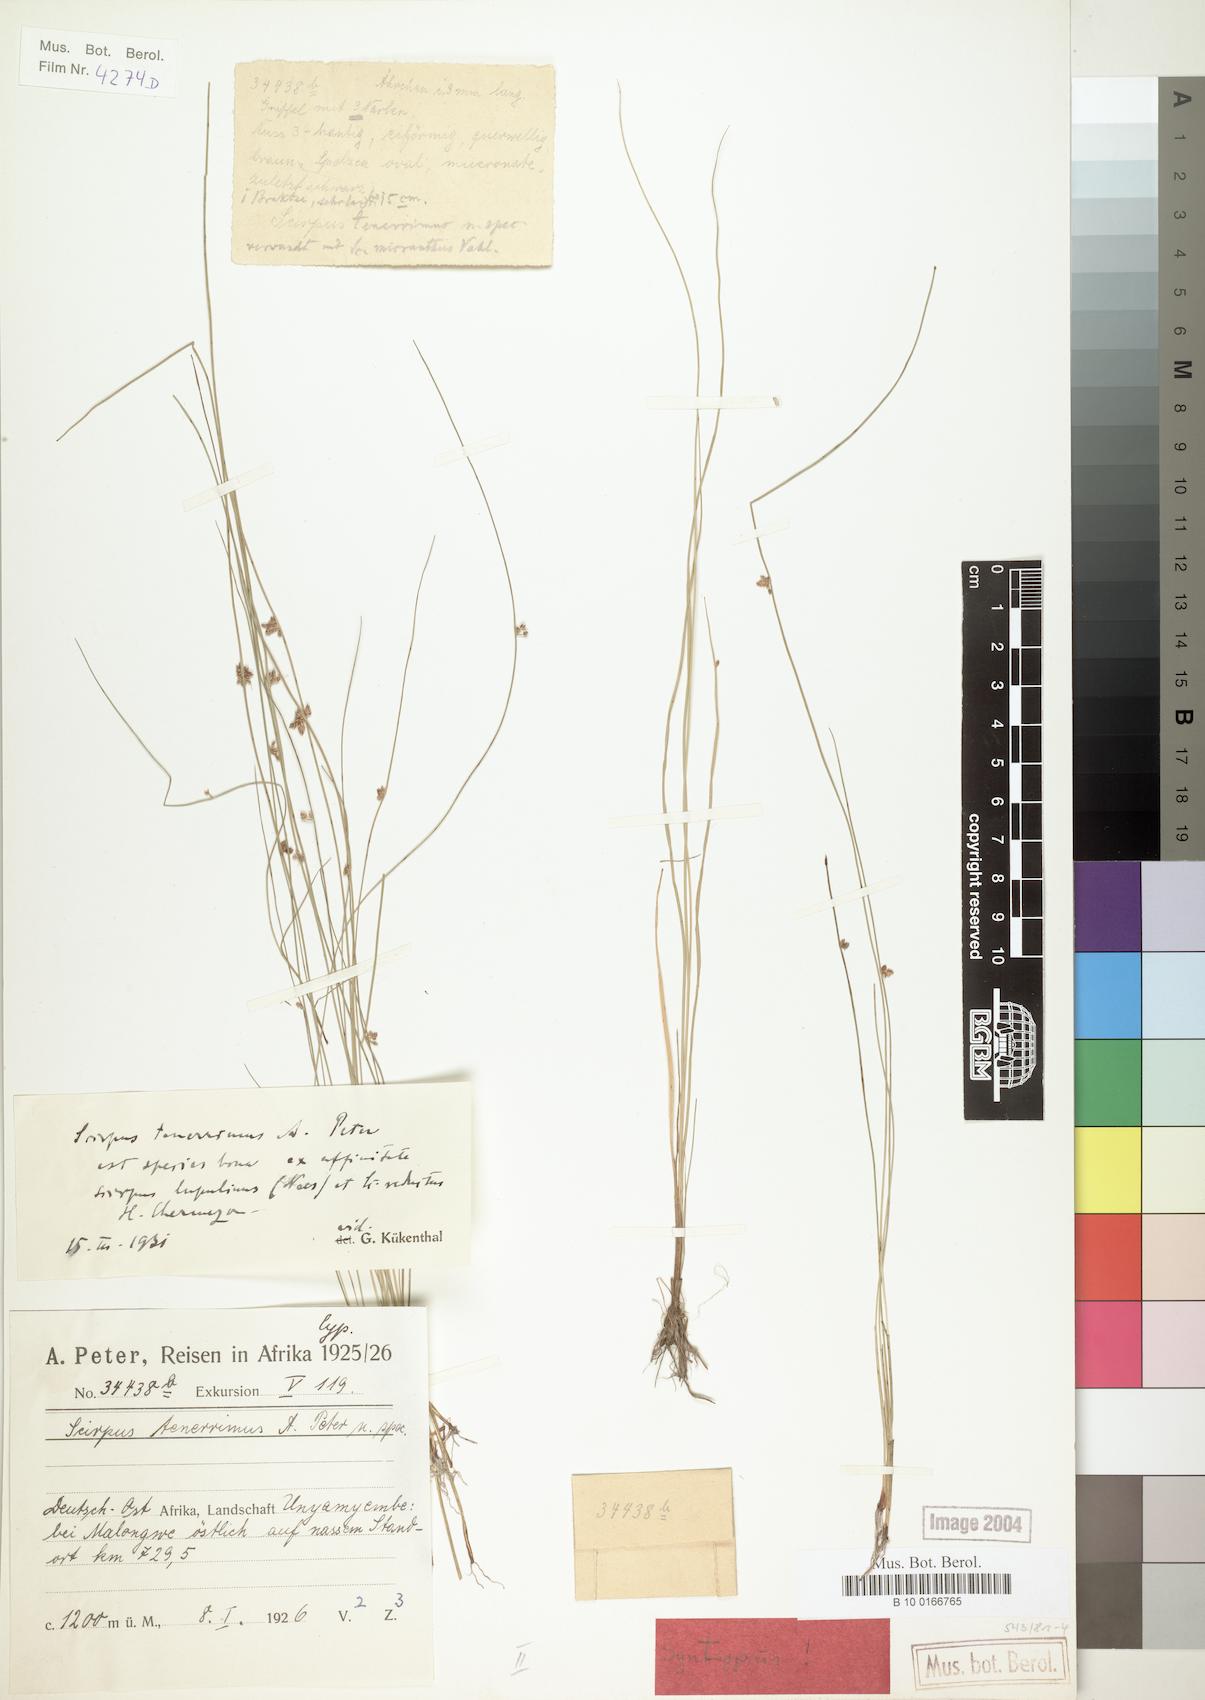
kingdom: Plantae
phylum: Tracheophyta
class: Liliopsida
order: Poales
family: Cyperaceae
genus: Schoenoplectiella
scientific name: Schoenoplectiella microglumis
